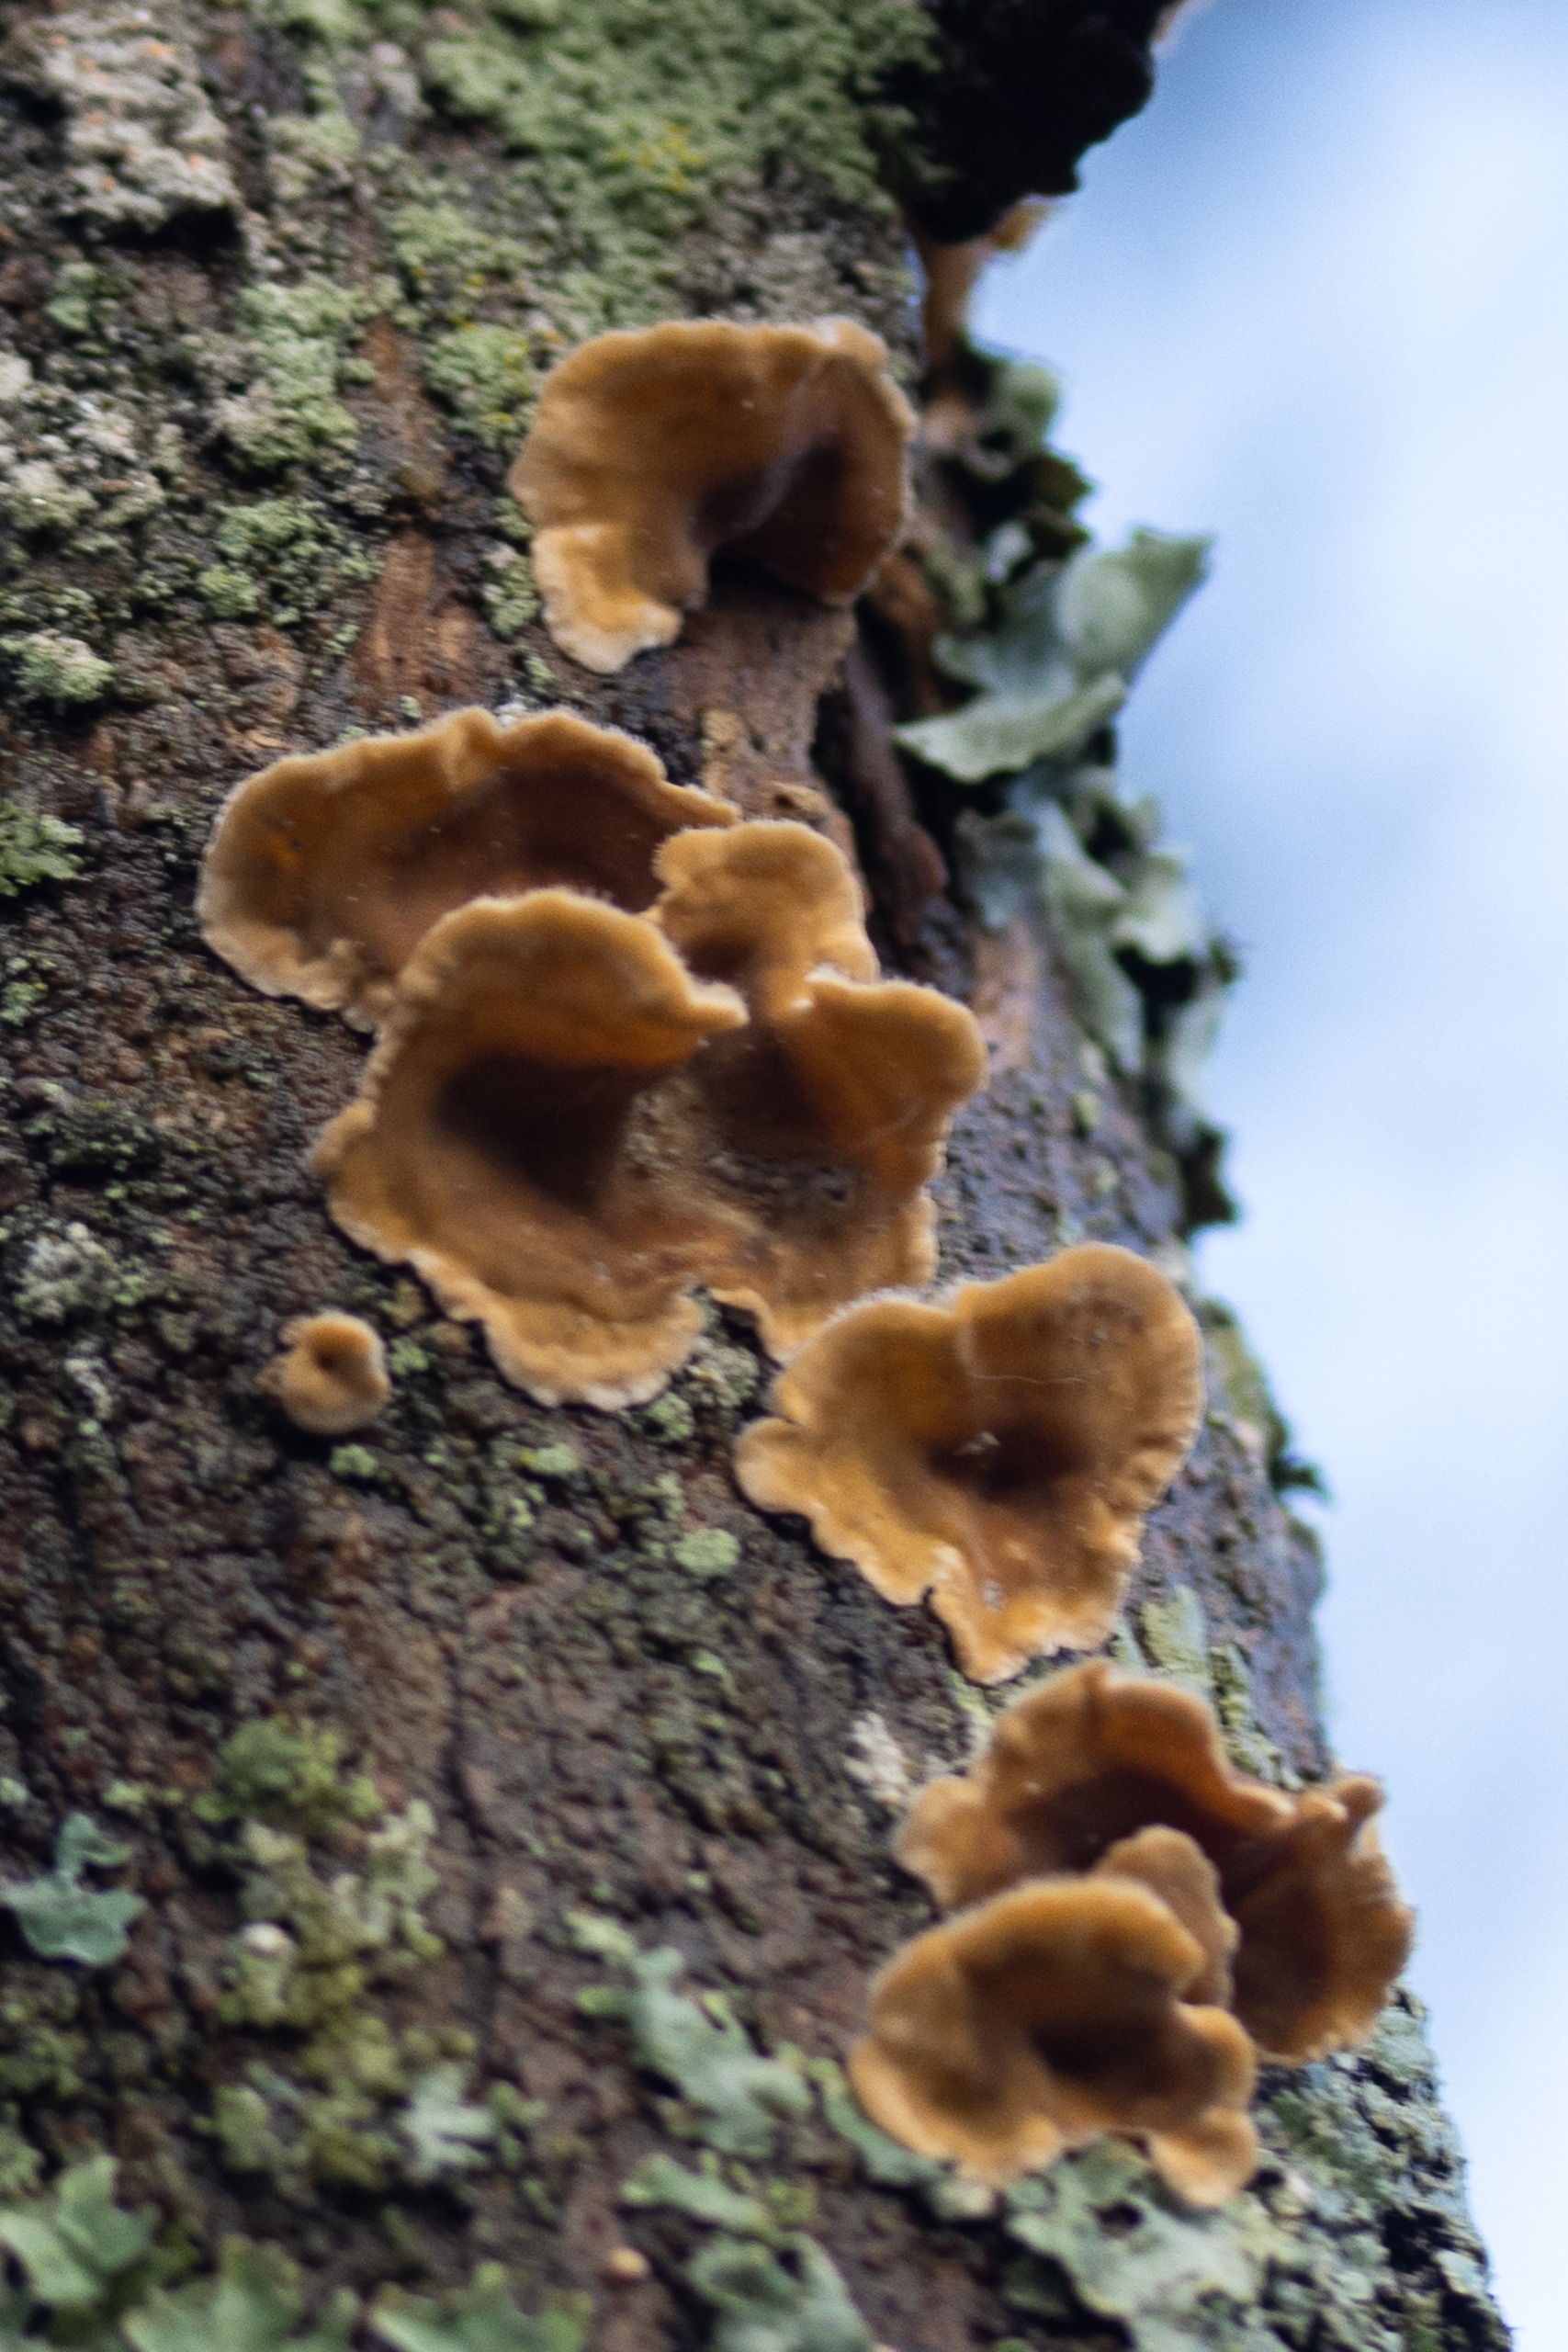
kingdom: Fungi
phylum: Basidiomycota
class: Agaricomycetes
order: Russulales
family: Stereaceae
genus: Stereum
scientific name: Stereum hirsutum
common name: Håret lædersvamp
